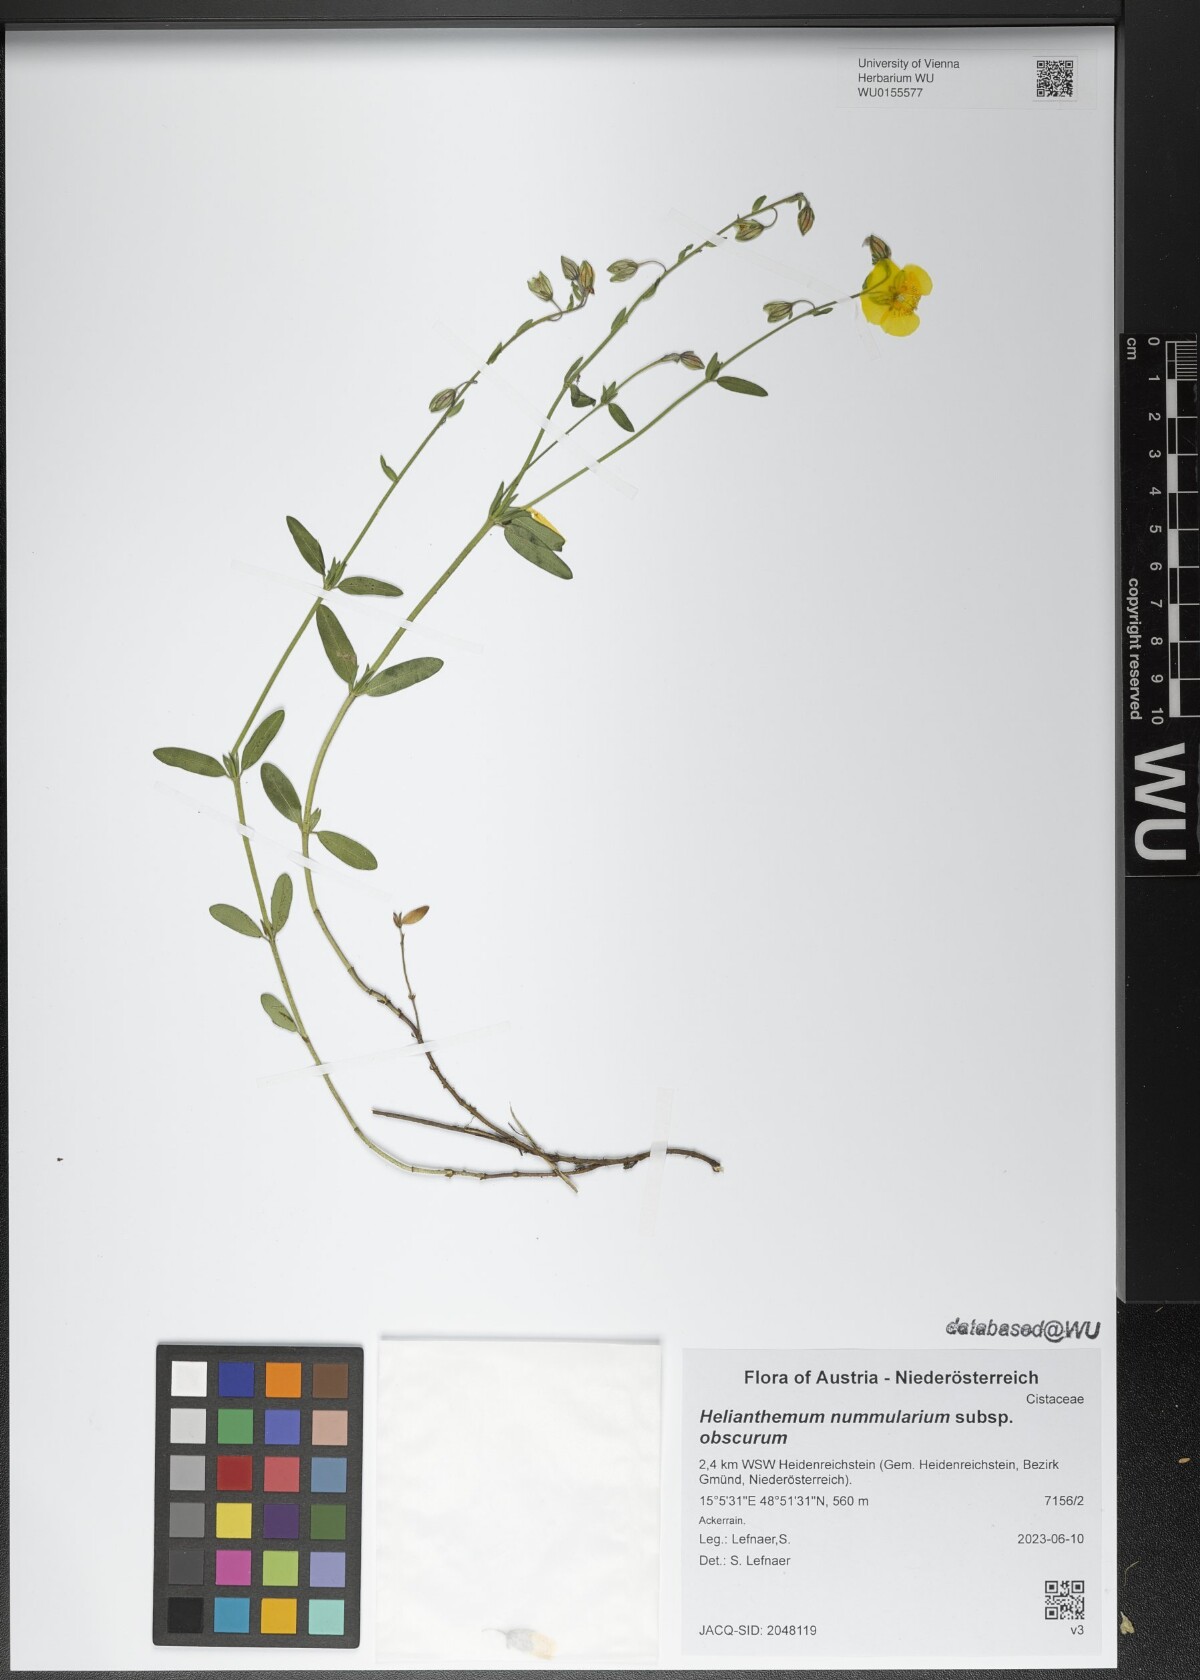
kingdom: Plantae
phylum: Tracheophyta
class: Magnoliopsida
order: Malvales
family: Cistaceae
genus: Helianthemum
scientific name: Helianthemum nummularium
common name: Common rock-rose
